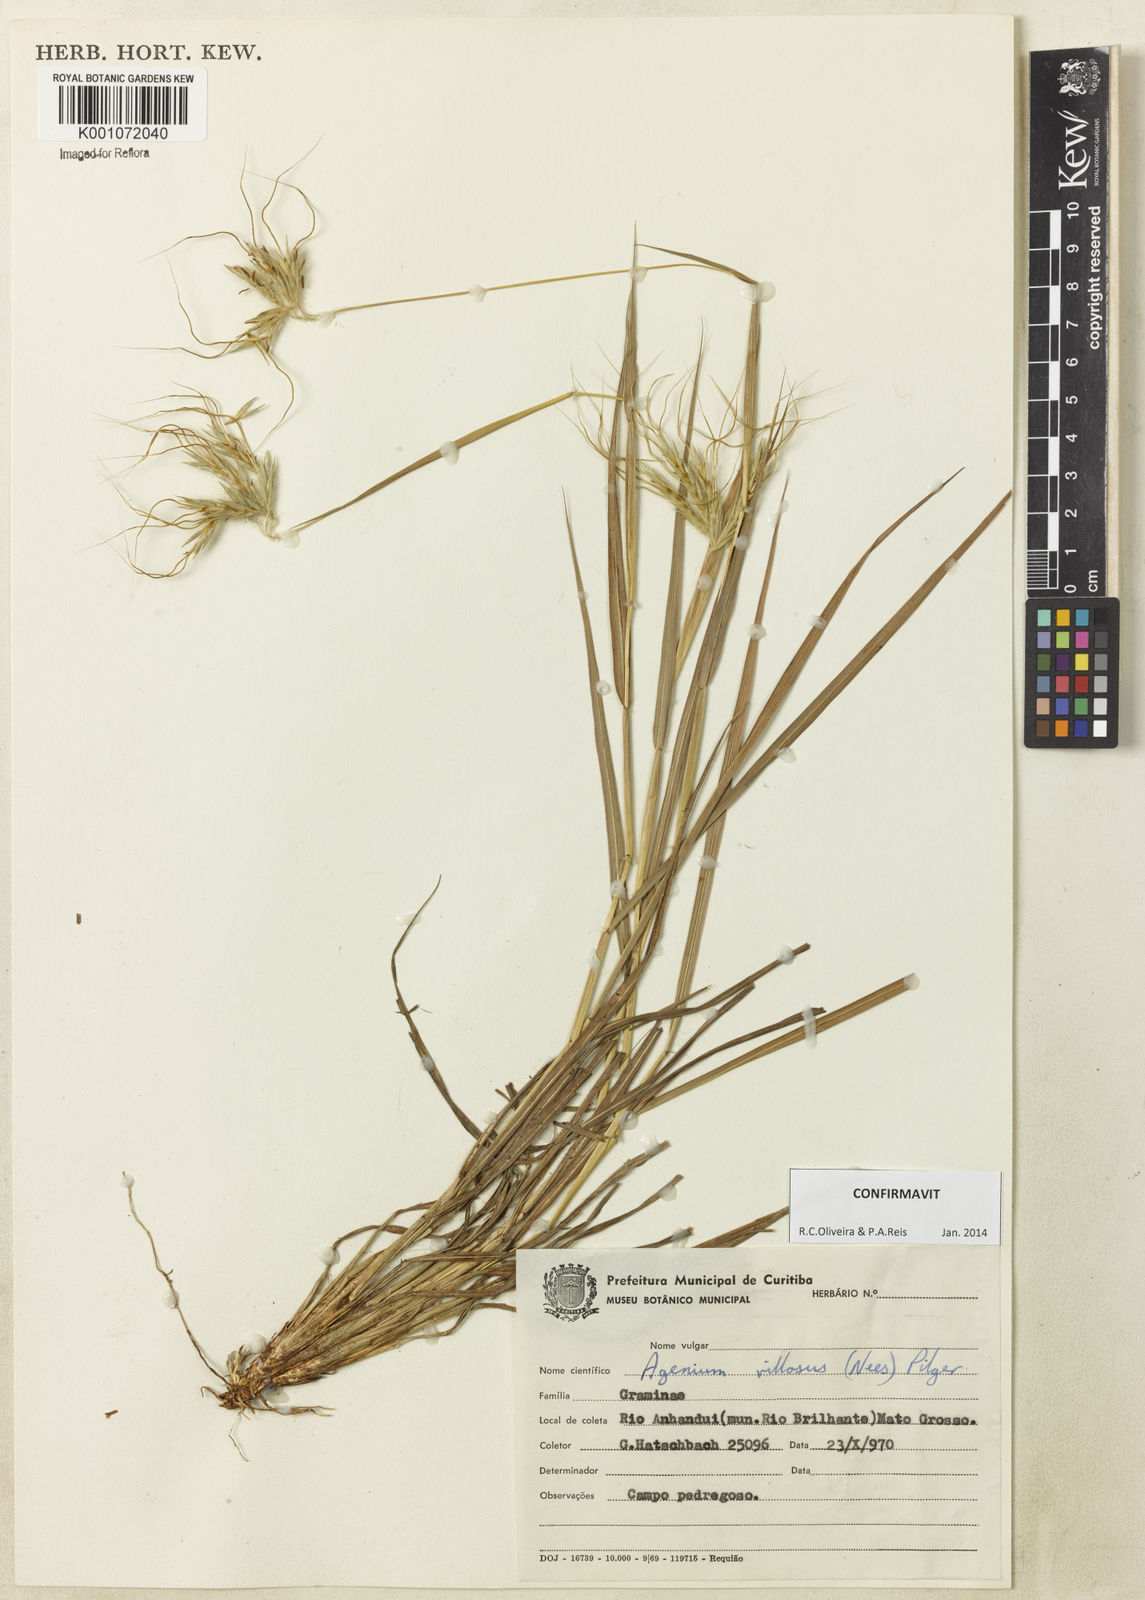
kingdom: Plantae
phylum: Tracheophyta
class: Liliopsida
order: Poales
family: Poaceae
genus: Agenium
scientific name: Agenium villosum
